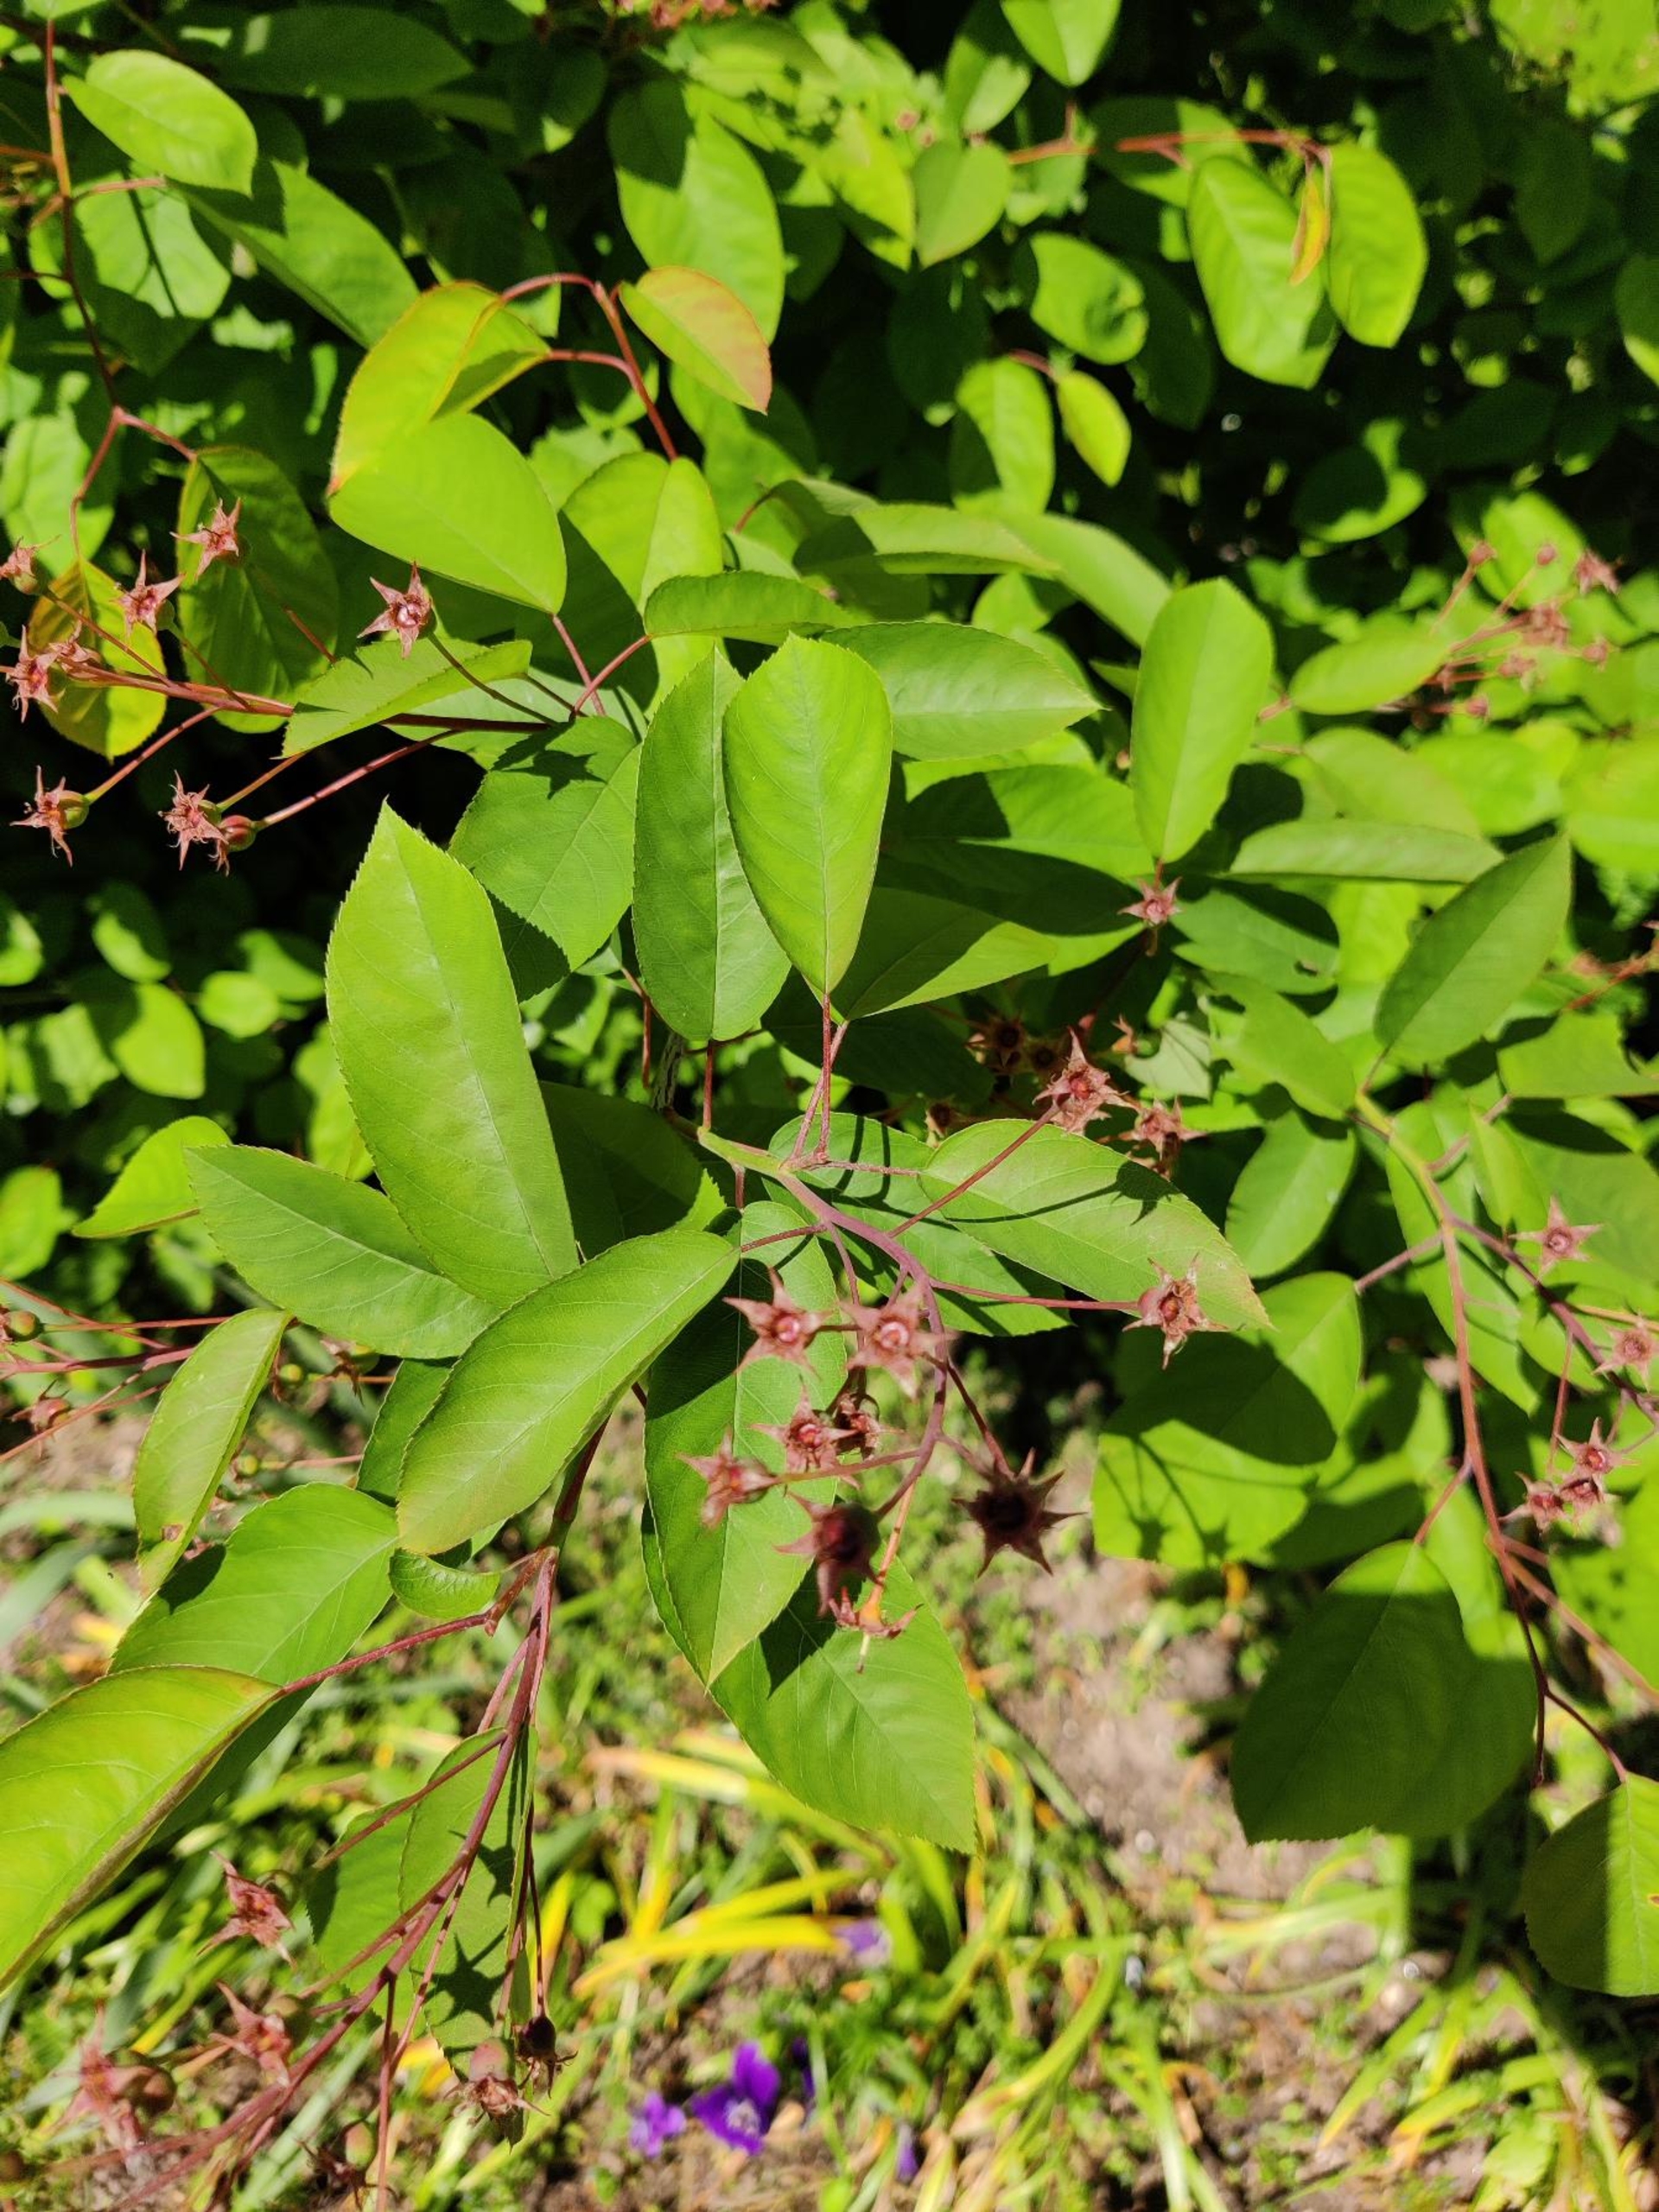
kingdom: Plantae
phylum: Tracheophyta
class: Magnoliopsida
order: Rosales
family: Rosaceae
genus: Amelanchier
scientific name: Amelanchier lamarckii
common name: Bærmispel
